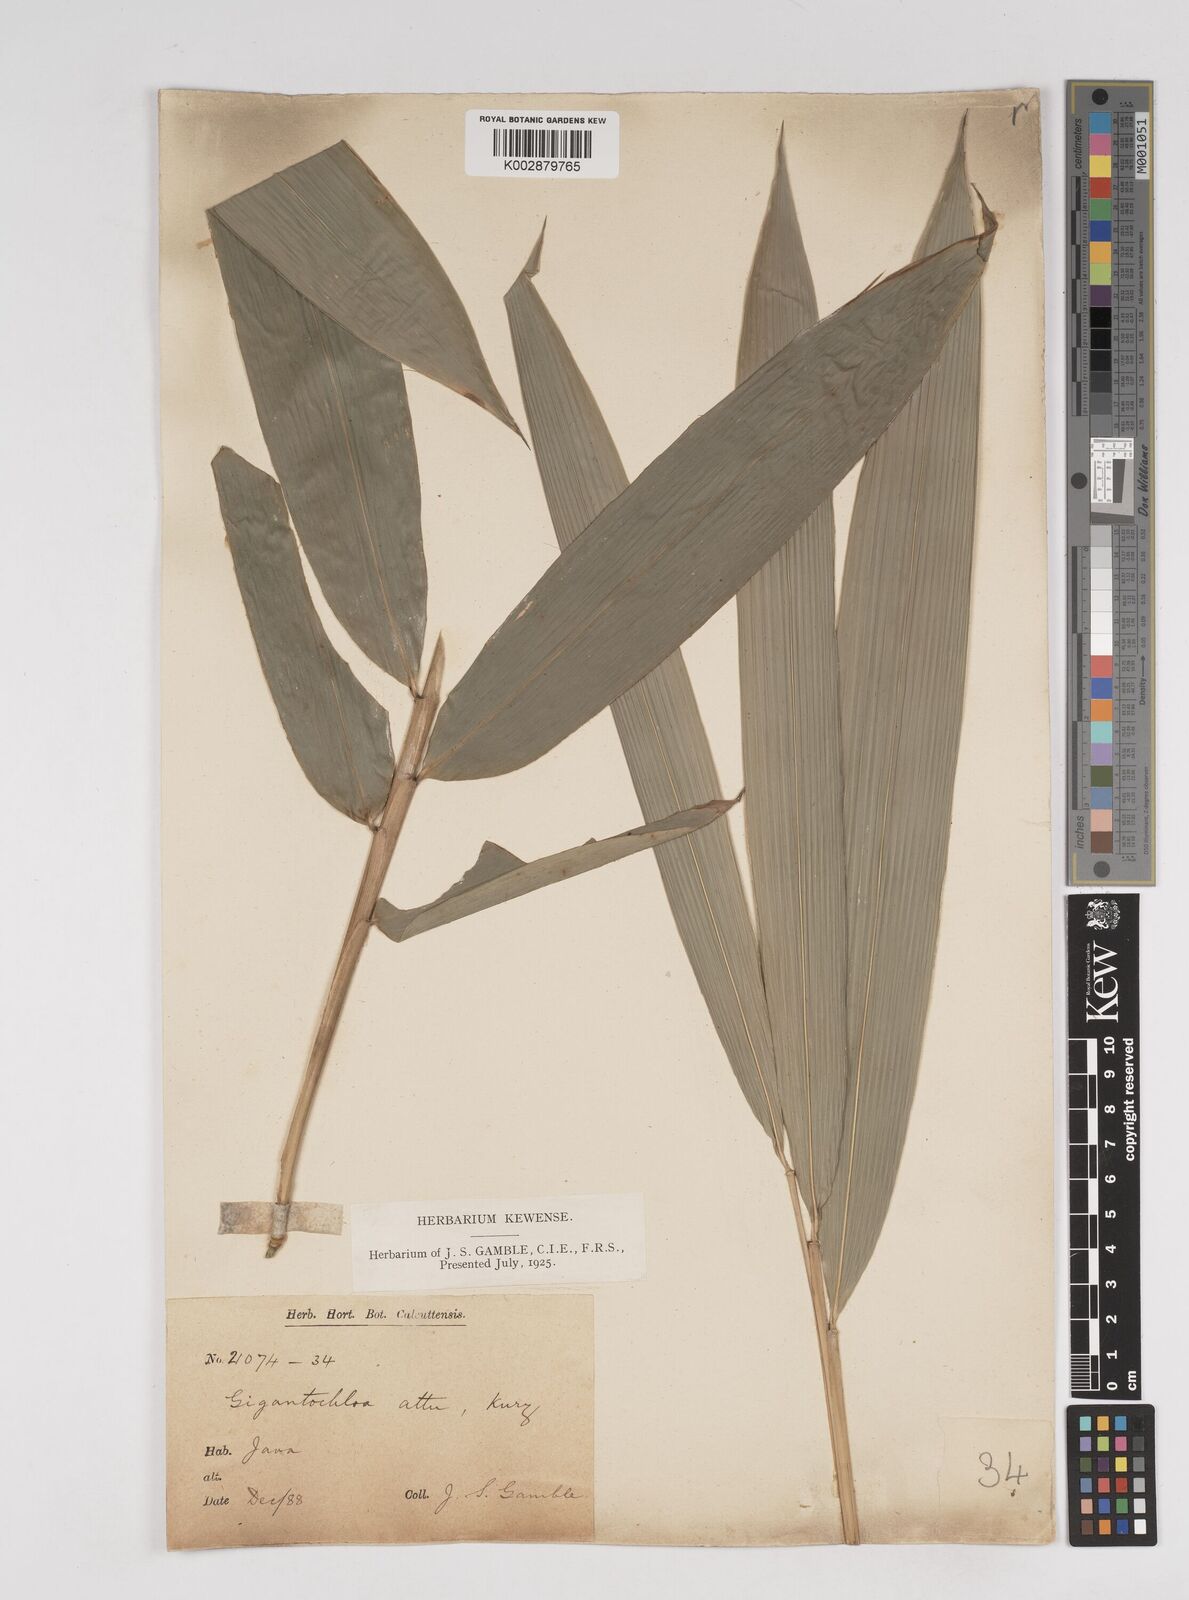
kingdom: Plantae
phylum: Tracheophyta
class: Liliopsida
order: Poales
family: Poaceae
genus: Gigantochloa
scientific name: Gigantochloa atter
